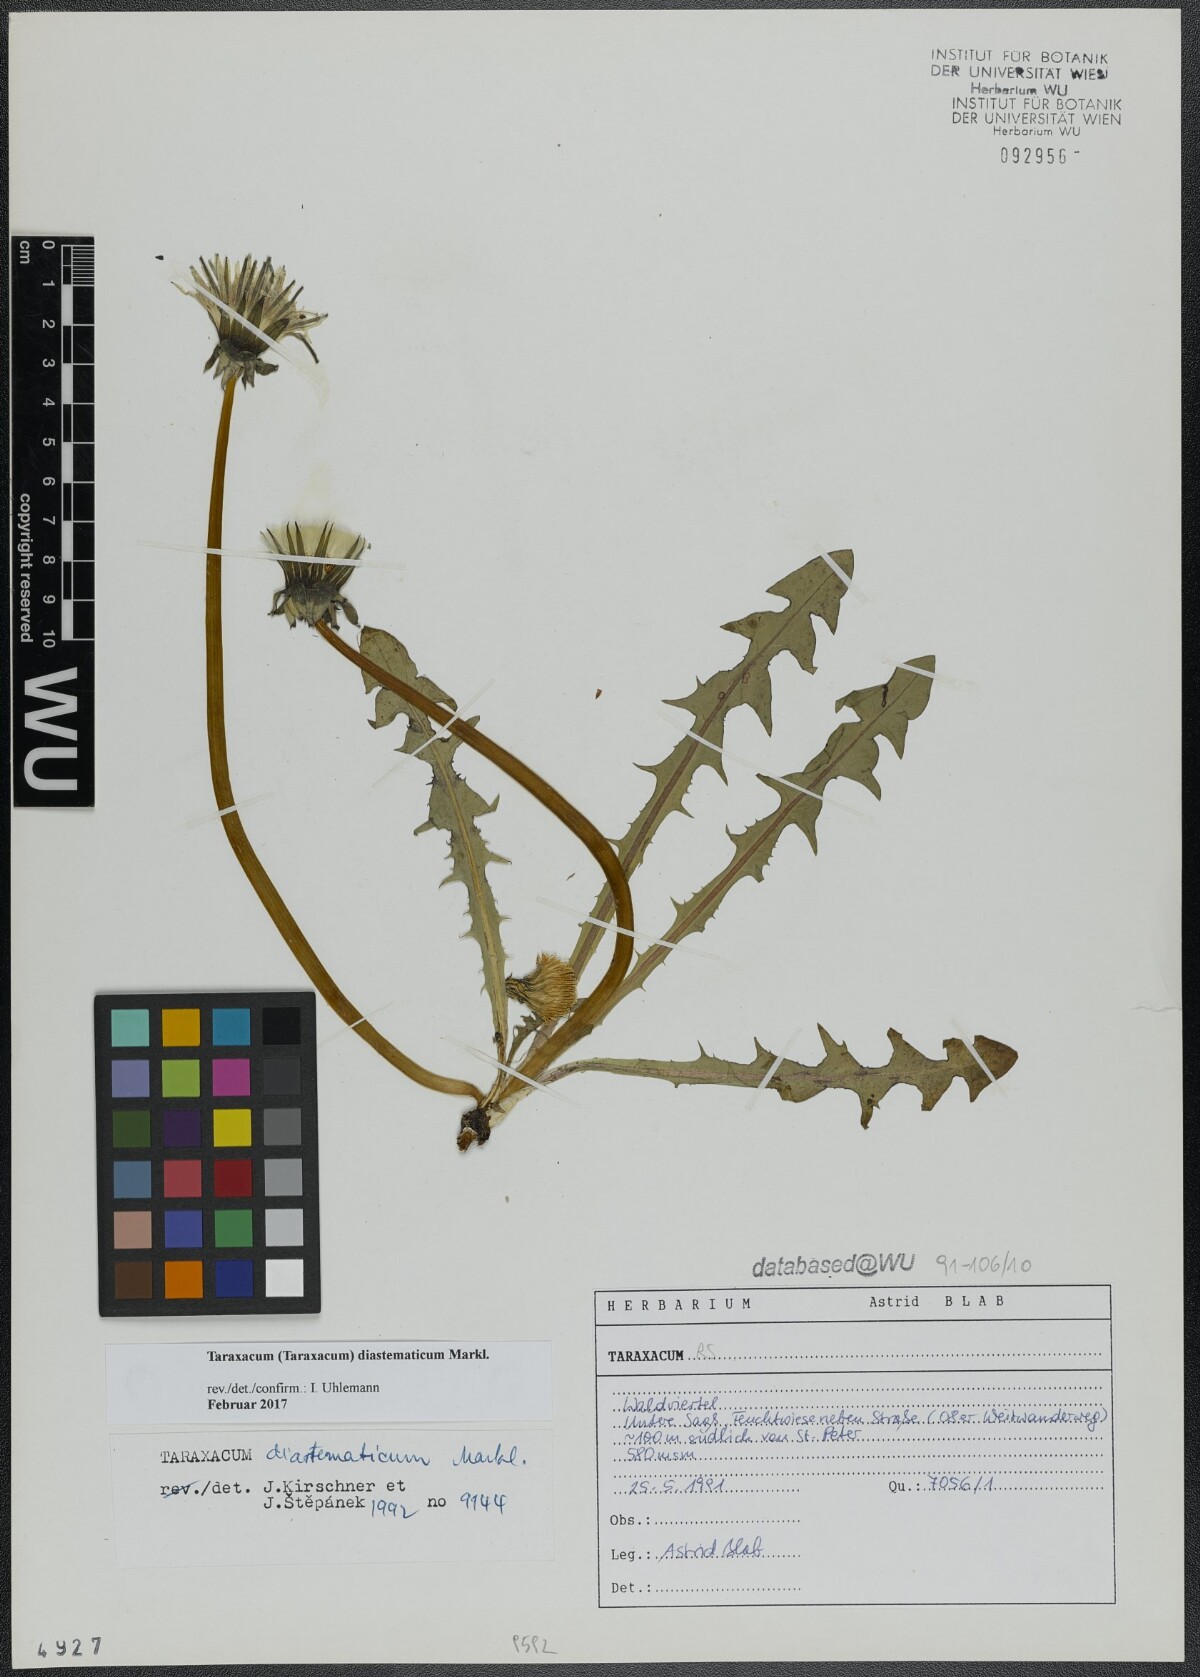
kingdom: Plantae
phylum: Tracheophyta
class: Magnoliopsida
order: Asterales
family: Asteraceae
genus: Taraxacum
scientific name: Taraxacum diastematicum
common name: Bulbous-lobed dandelion
